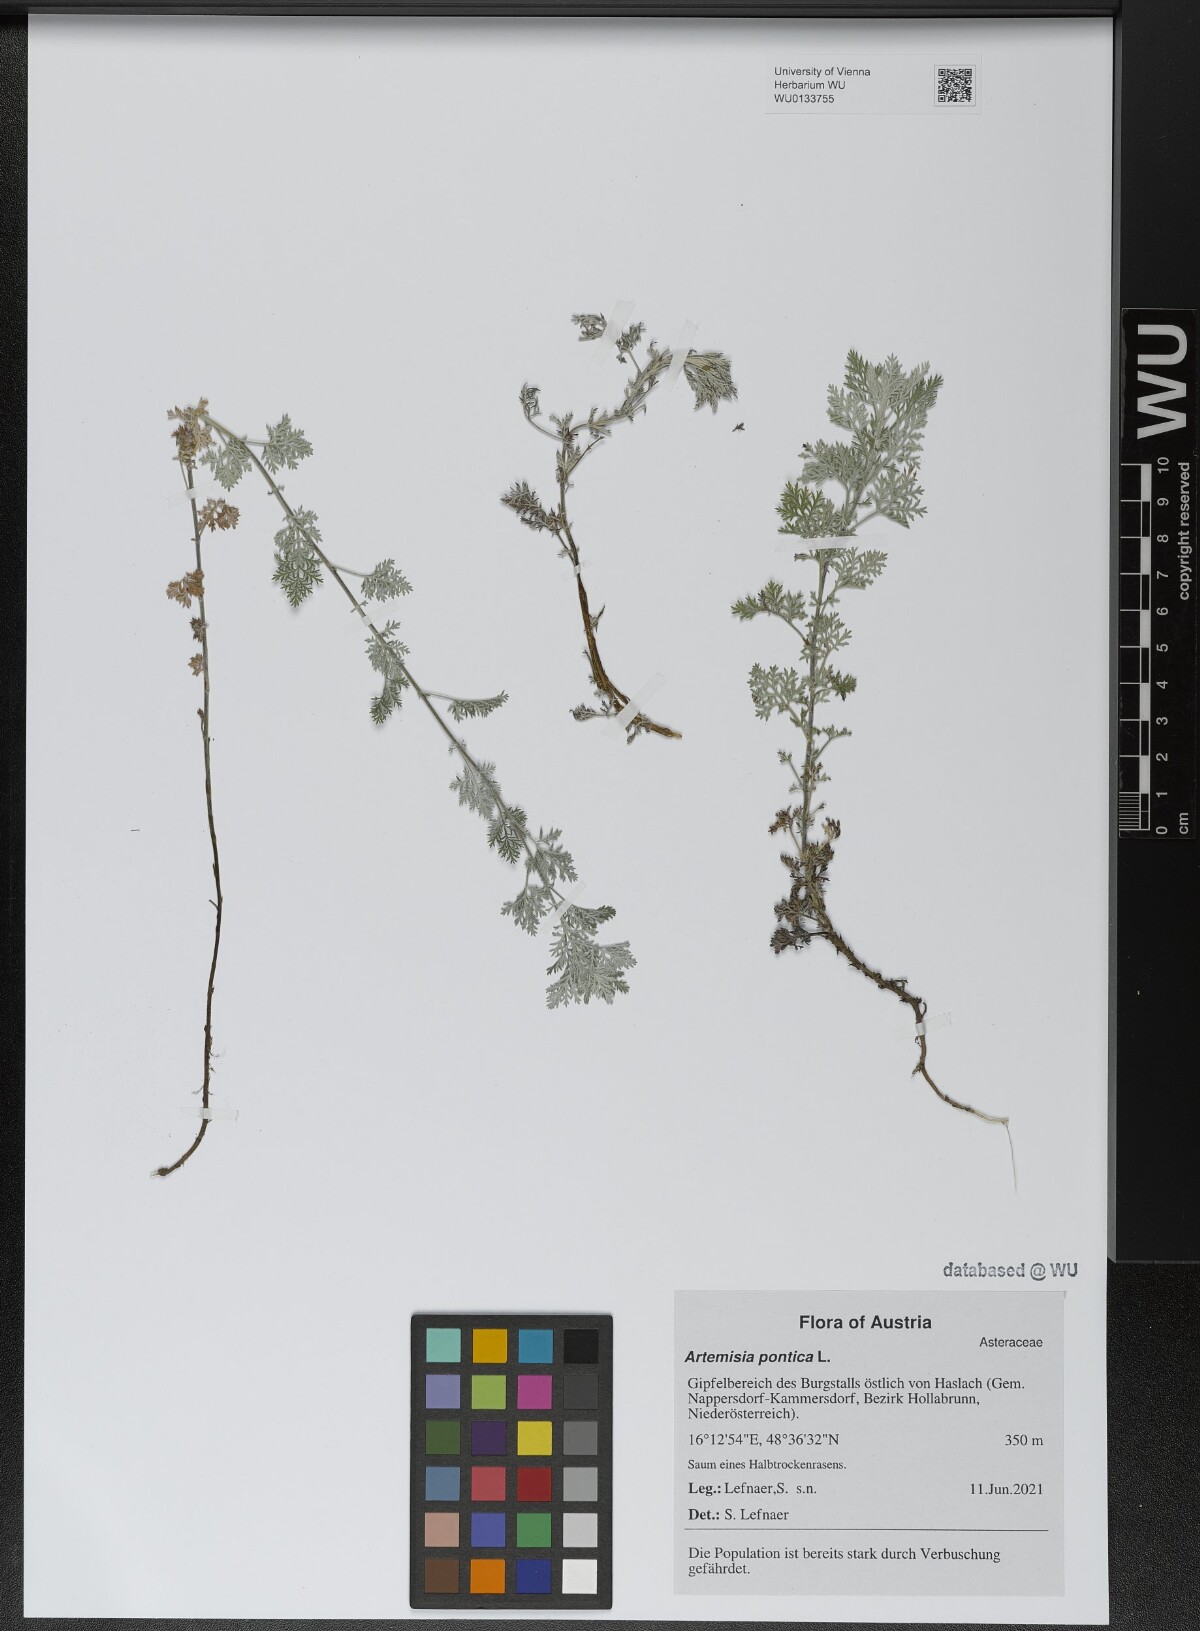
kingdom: Plantae
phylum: Tracheophyta
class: Magnoliopsida
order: Asterales
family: Asteraceae
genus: Artemisia
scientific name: Artemisia pontica
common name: Roman wormwood
